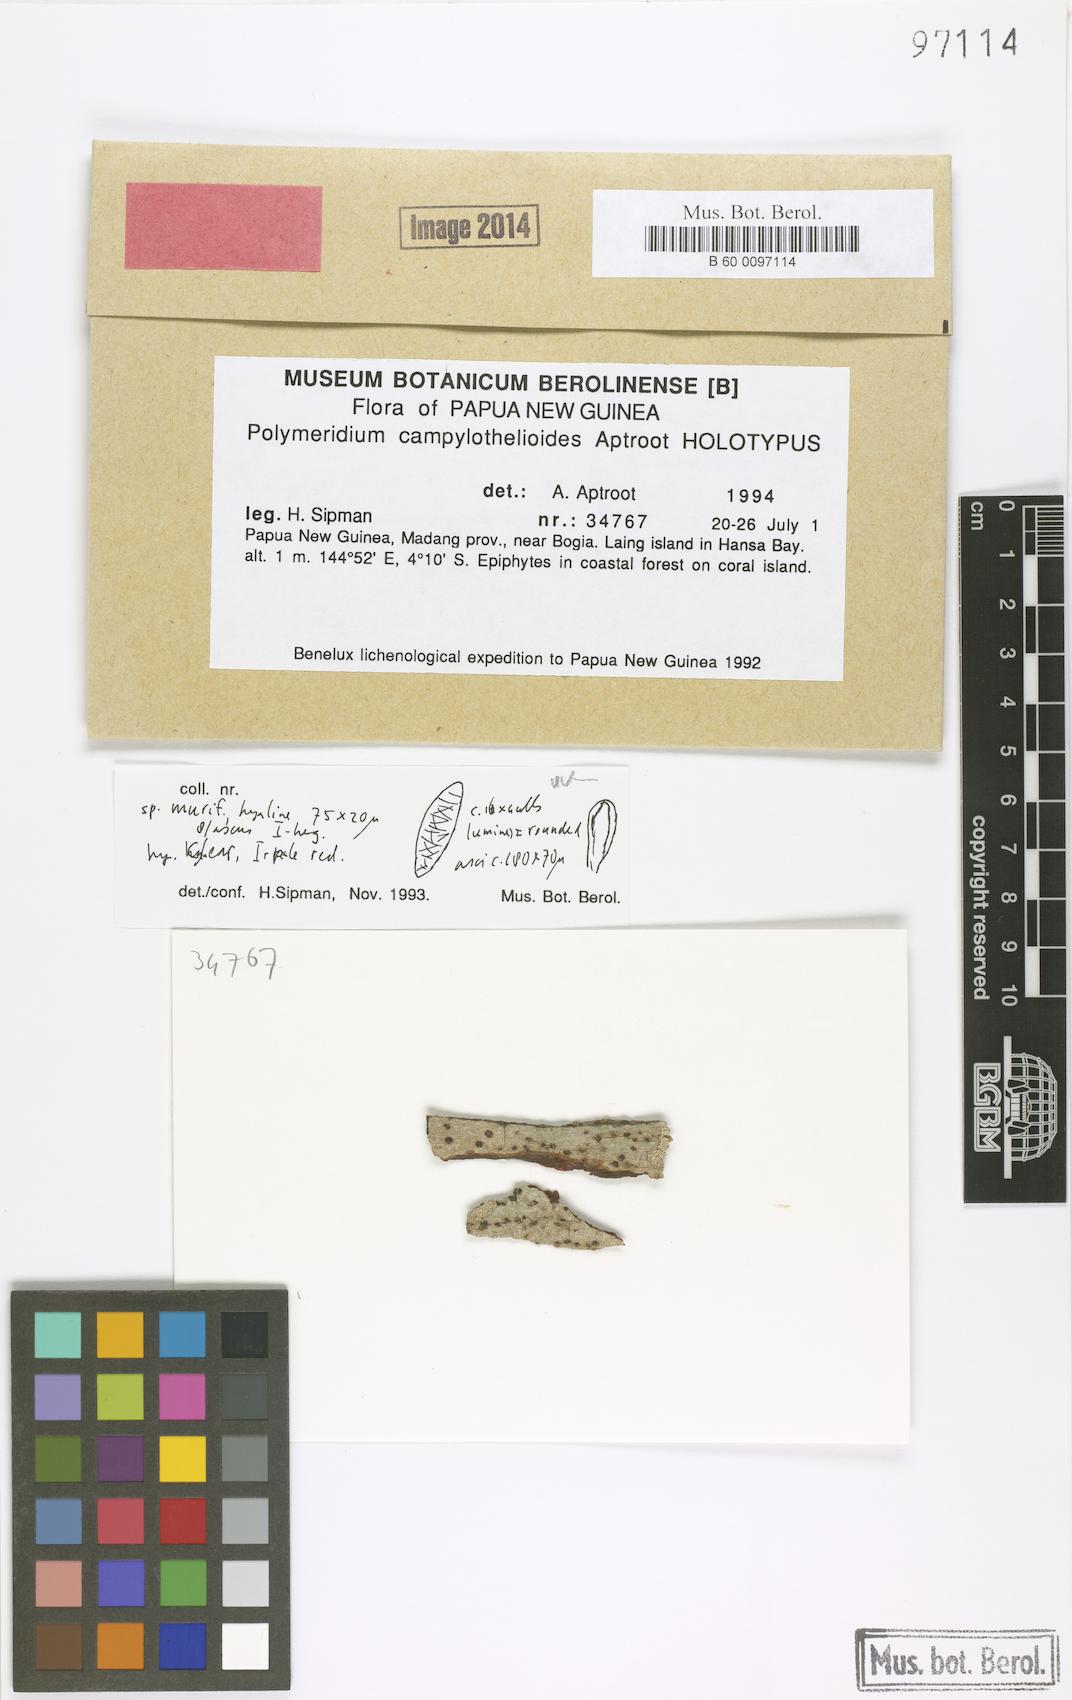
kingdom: Fungi
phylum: Ascomycota
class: Dothideomycetes
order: Trypetheliales
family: Trypetheliaceae
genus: Dictyomeridium
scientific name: Dictyomeridium campylothelioides
